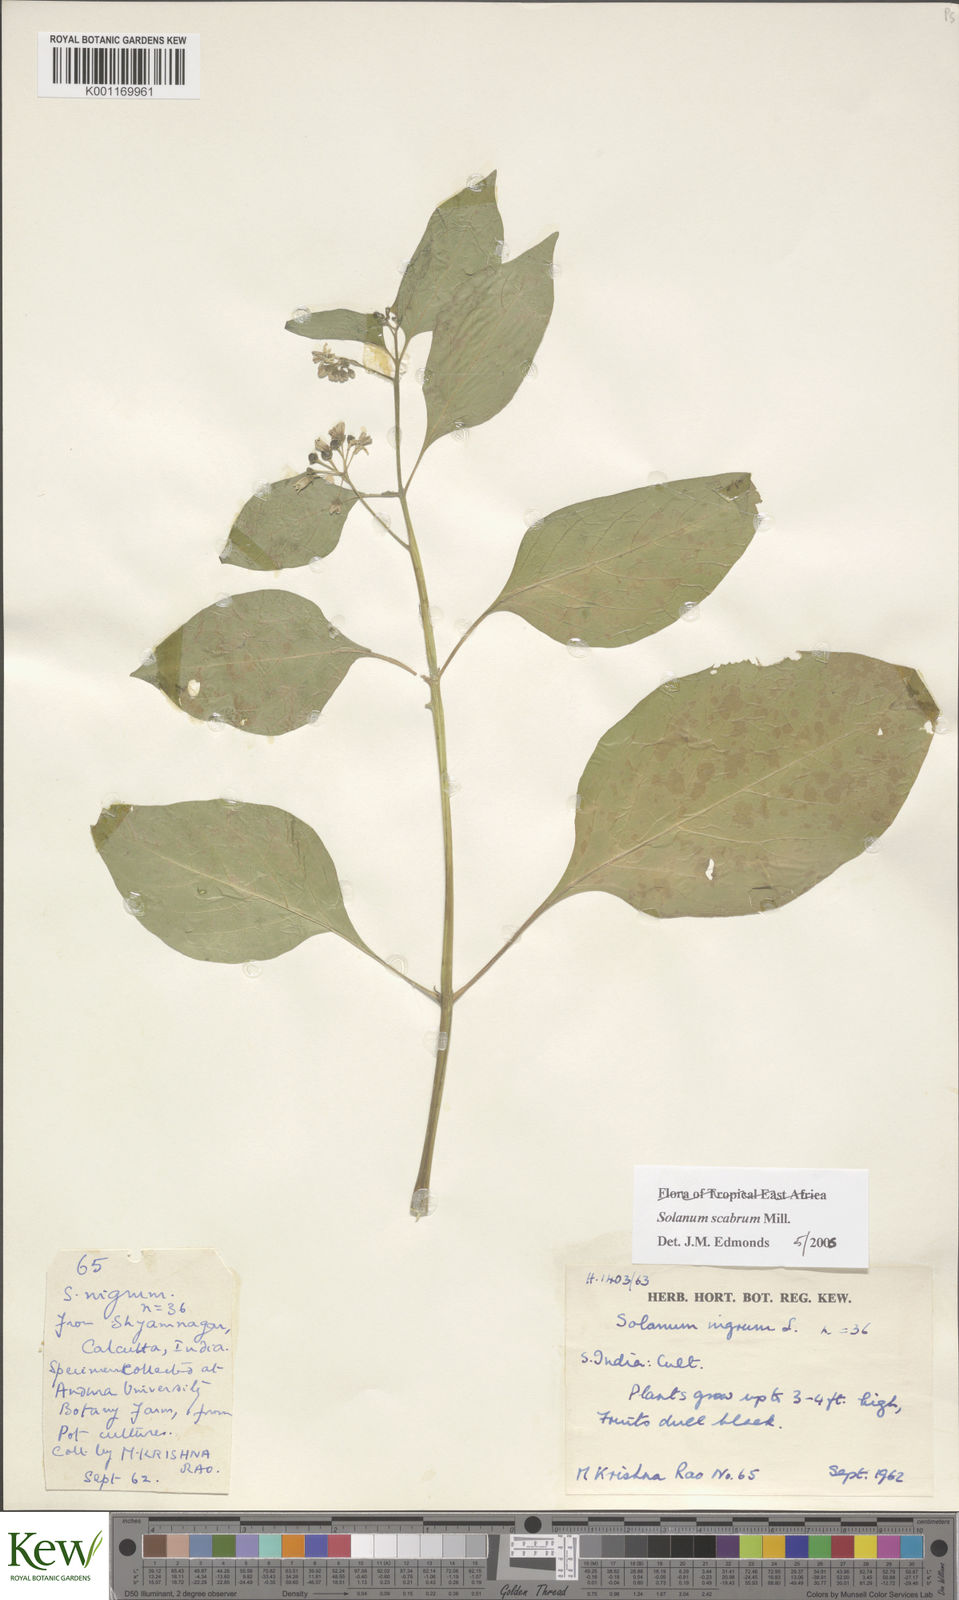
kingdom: Plantae
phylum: Tracheophyta
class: Magnoliopsida
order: Solanales
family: Solanaceae
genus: Solanum
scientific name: Solanum scabrum
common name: Garden-huckleberry
